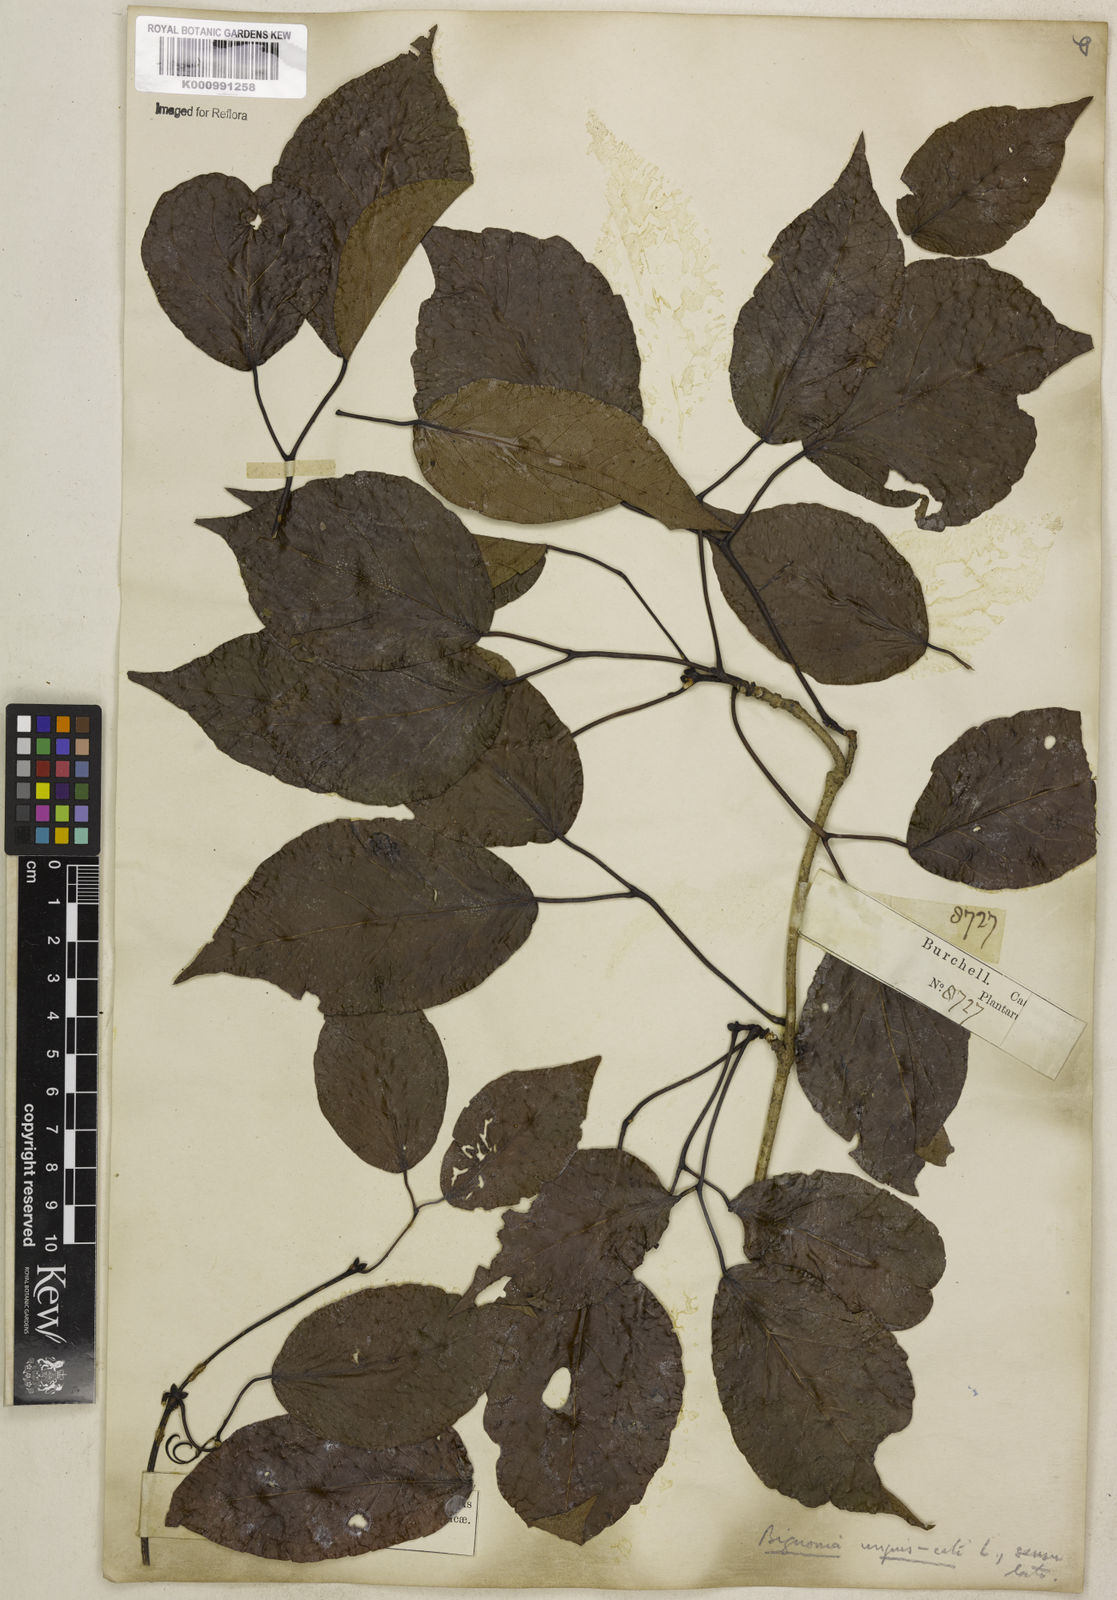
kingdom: Plantae
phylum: Tracheophyta
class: Magnoliopsida
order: Lamiales
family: Bignoniaceae
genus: Dolichandra
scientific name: Dolichandra unguis-cati
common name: Catclaw vine
